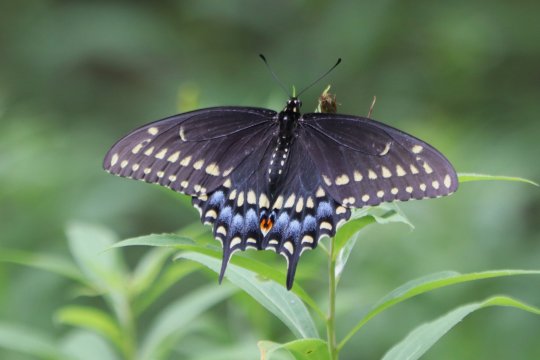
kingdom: Animalia
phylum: Arthropoda
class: Insecta
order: Lepidoptera
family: Papilionidae
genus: Papilio
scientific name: Papilio polyxenes
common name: Black Swallowtail
